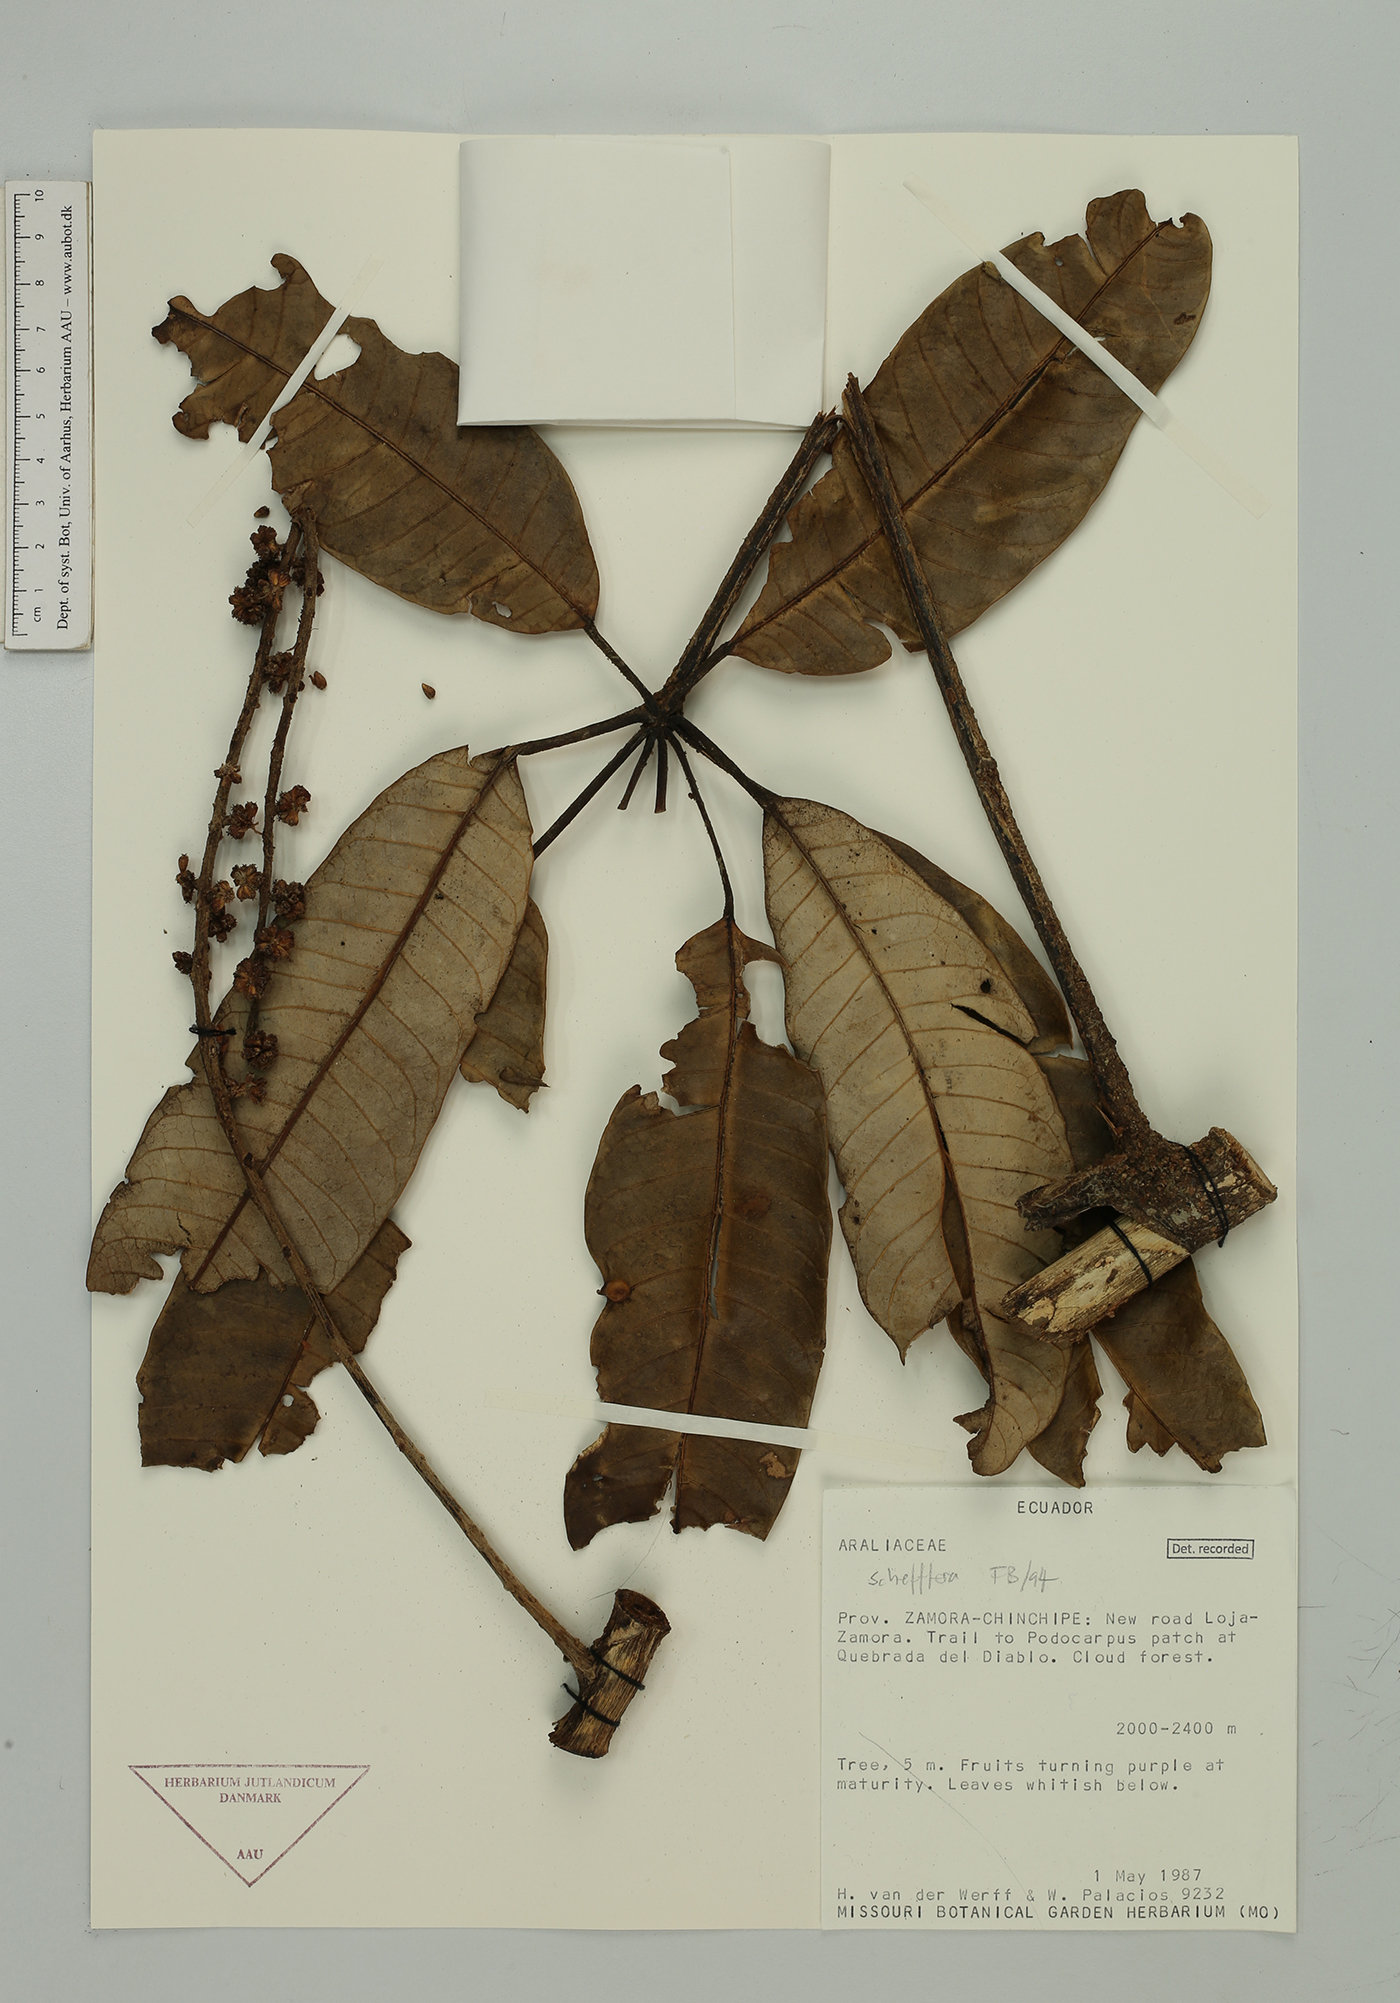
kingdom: Plantae
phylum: Tracheophyta
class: Magnoliopsida
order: Apiales
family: Araliaceae
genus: Sciodaphyllum
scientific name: Sciodaphyllum
